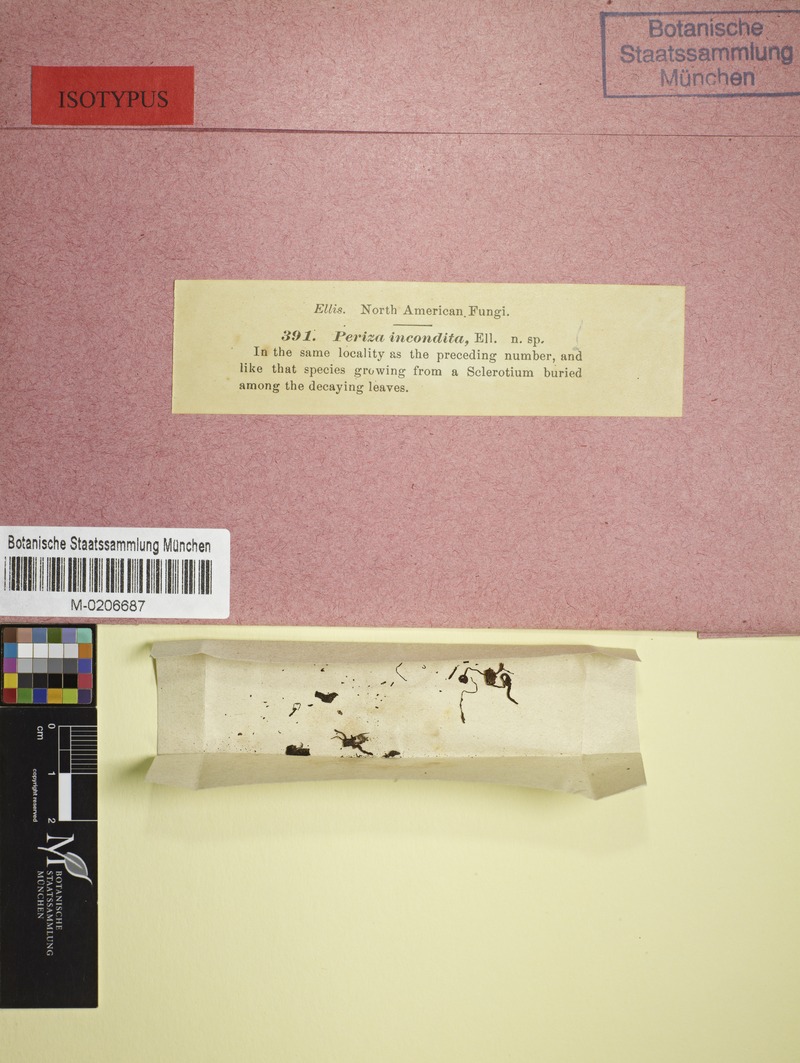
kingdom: Fungi
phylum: Ascomycota
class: Leotiomycetes
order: Helotiales
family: Sclerotiniaceae
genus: Sclerotinia
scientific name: Sclerotinia
